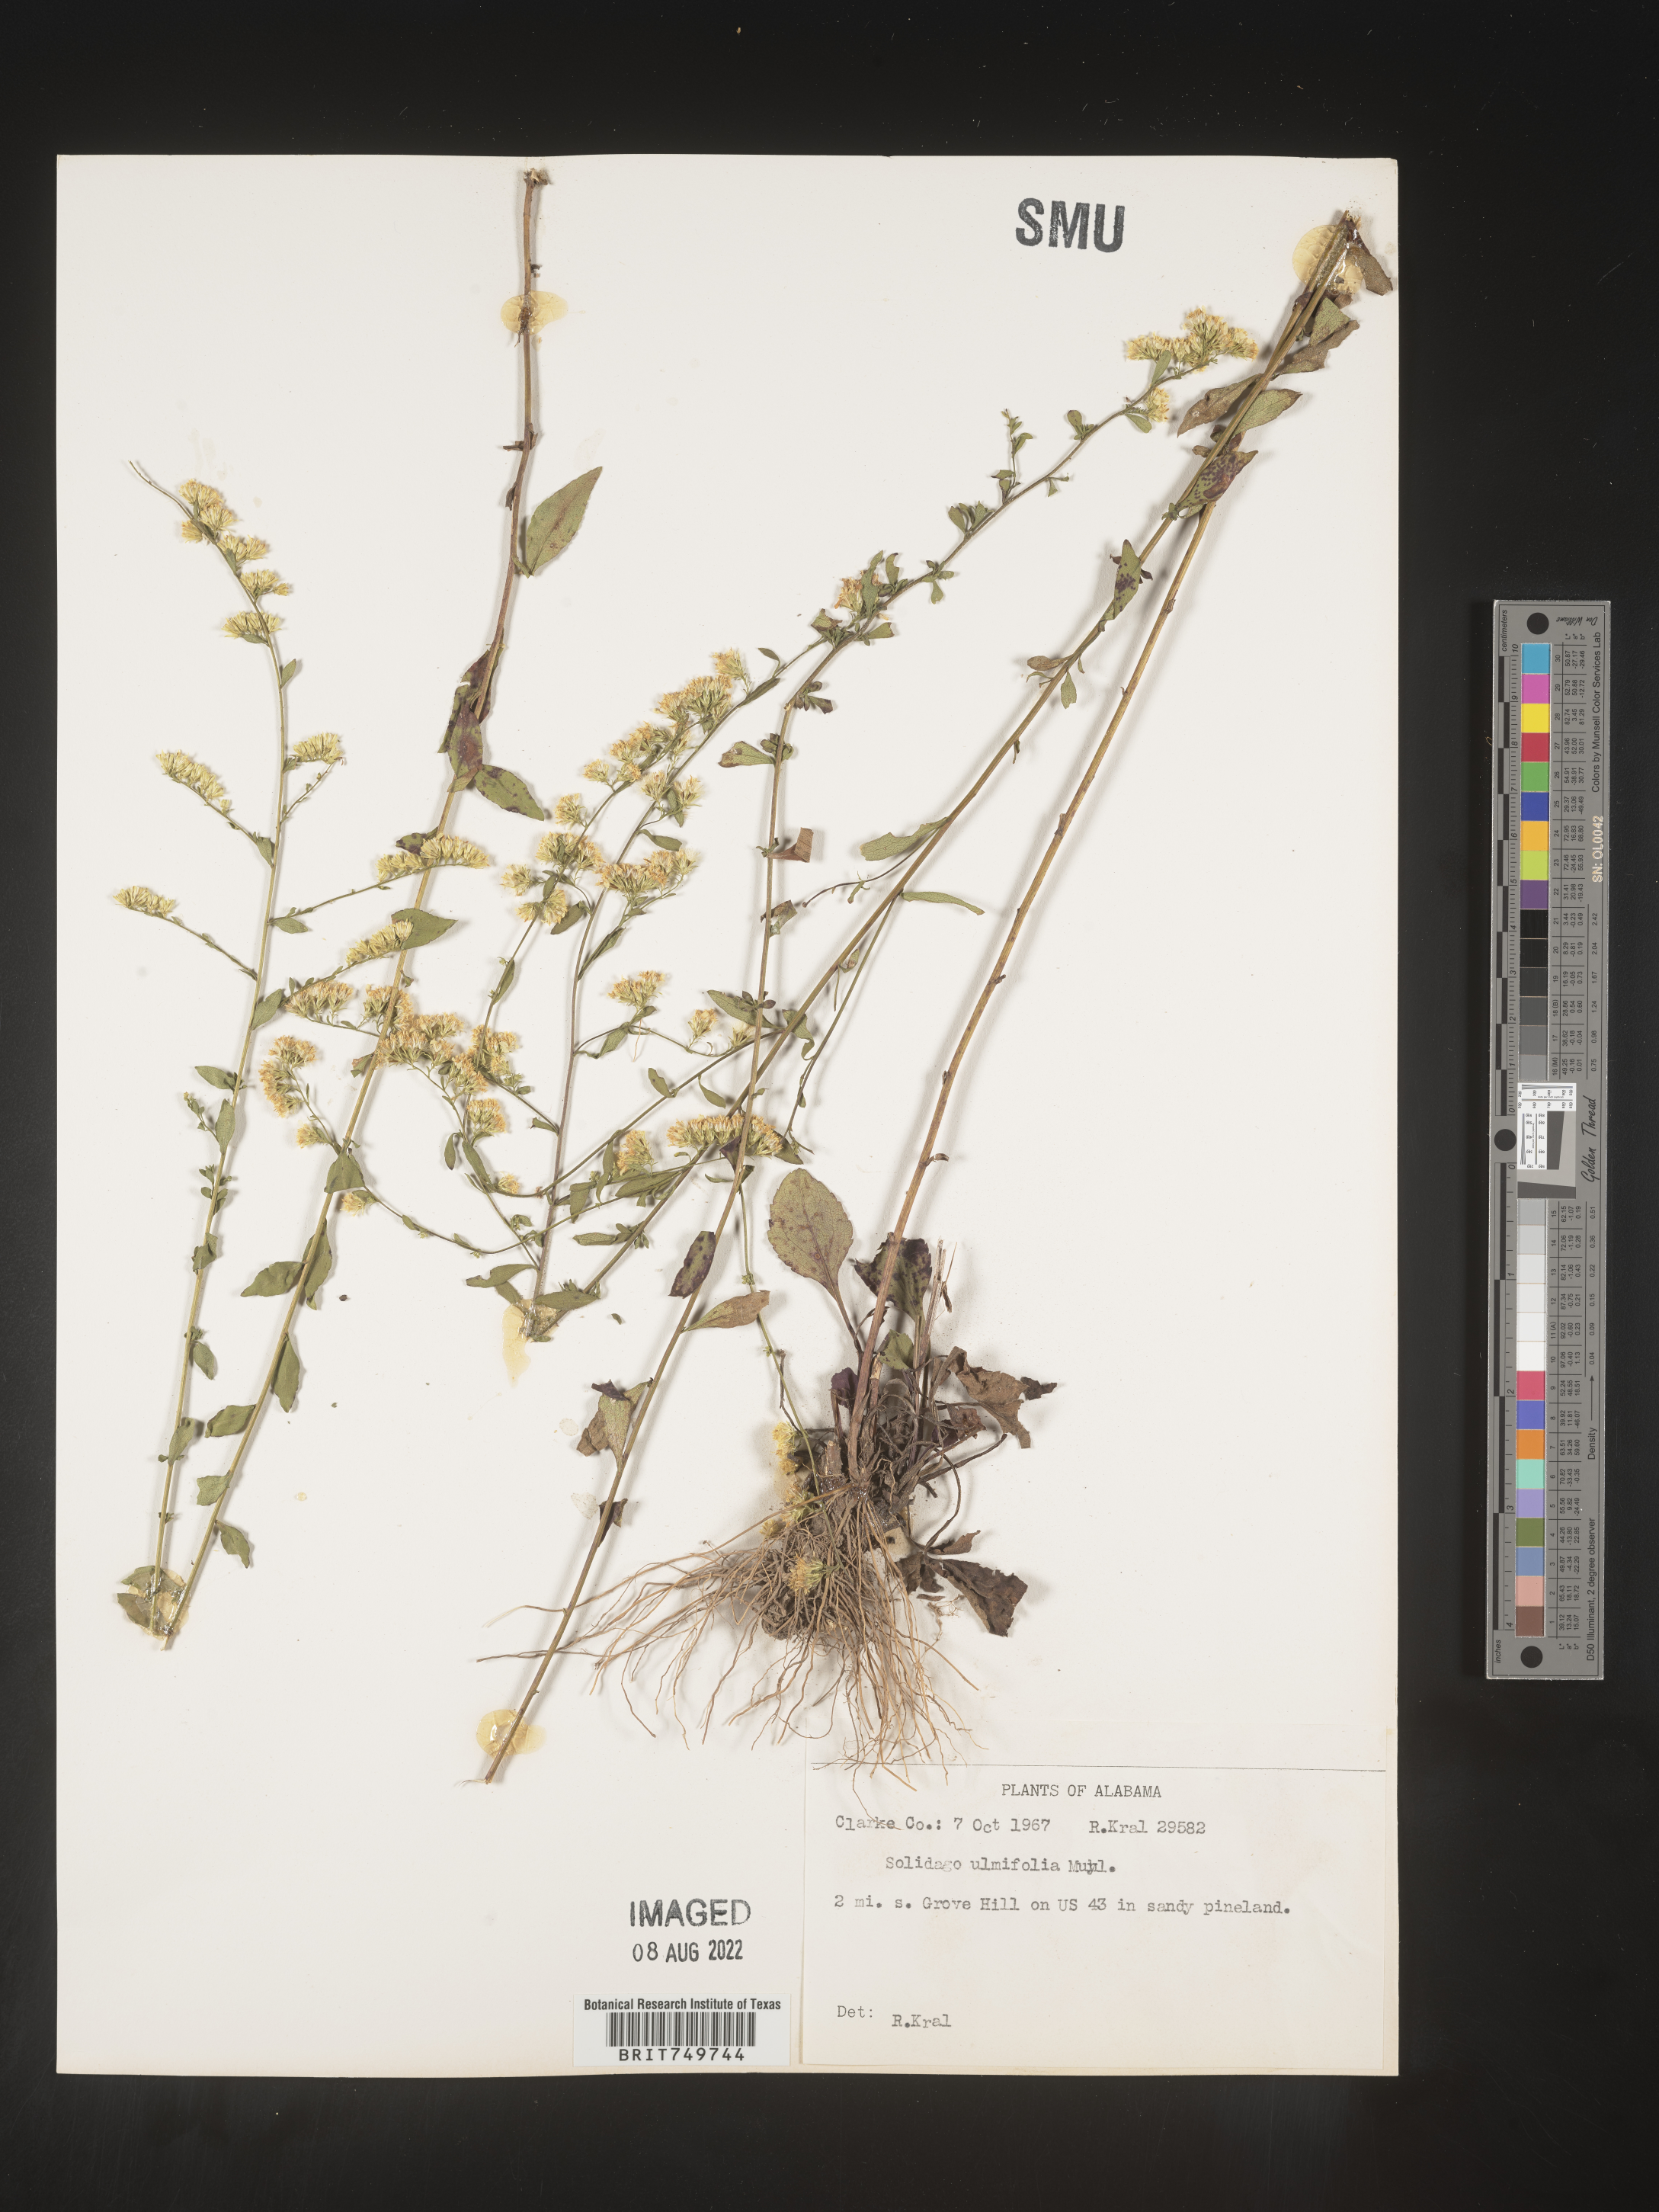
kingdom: Plantae
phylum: Tracheophyta
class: Magnoliopsida
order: Asterales
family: Asteraceae
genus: Solidago
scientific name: Solidago ulmifolia
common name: Elm-leaf goldenrod
